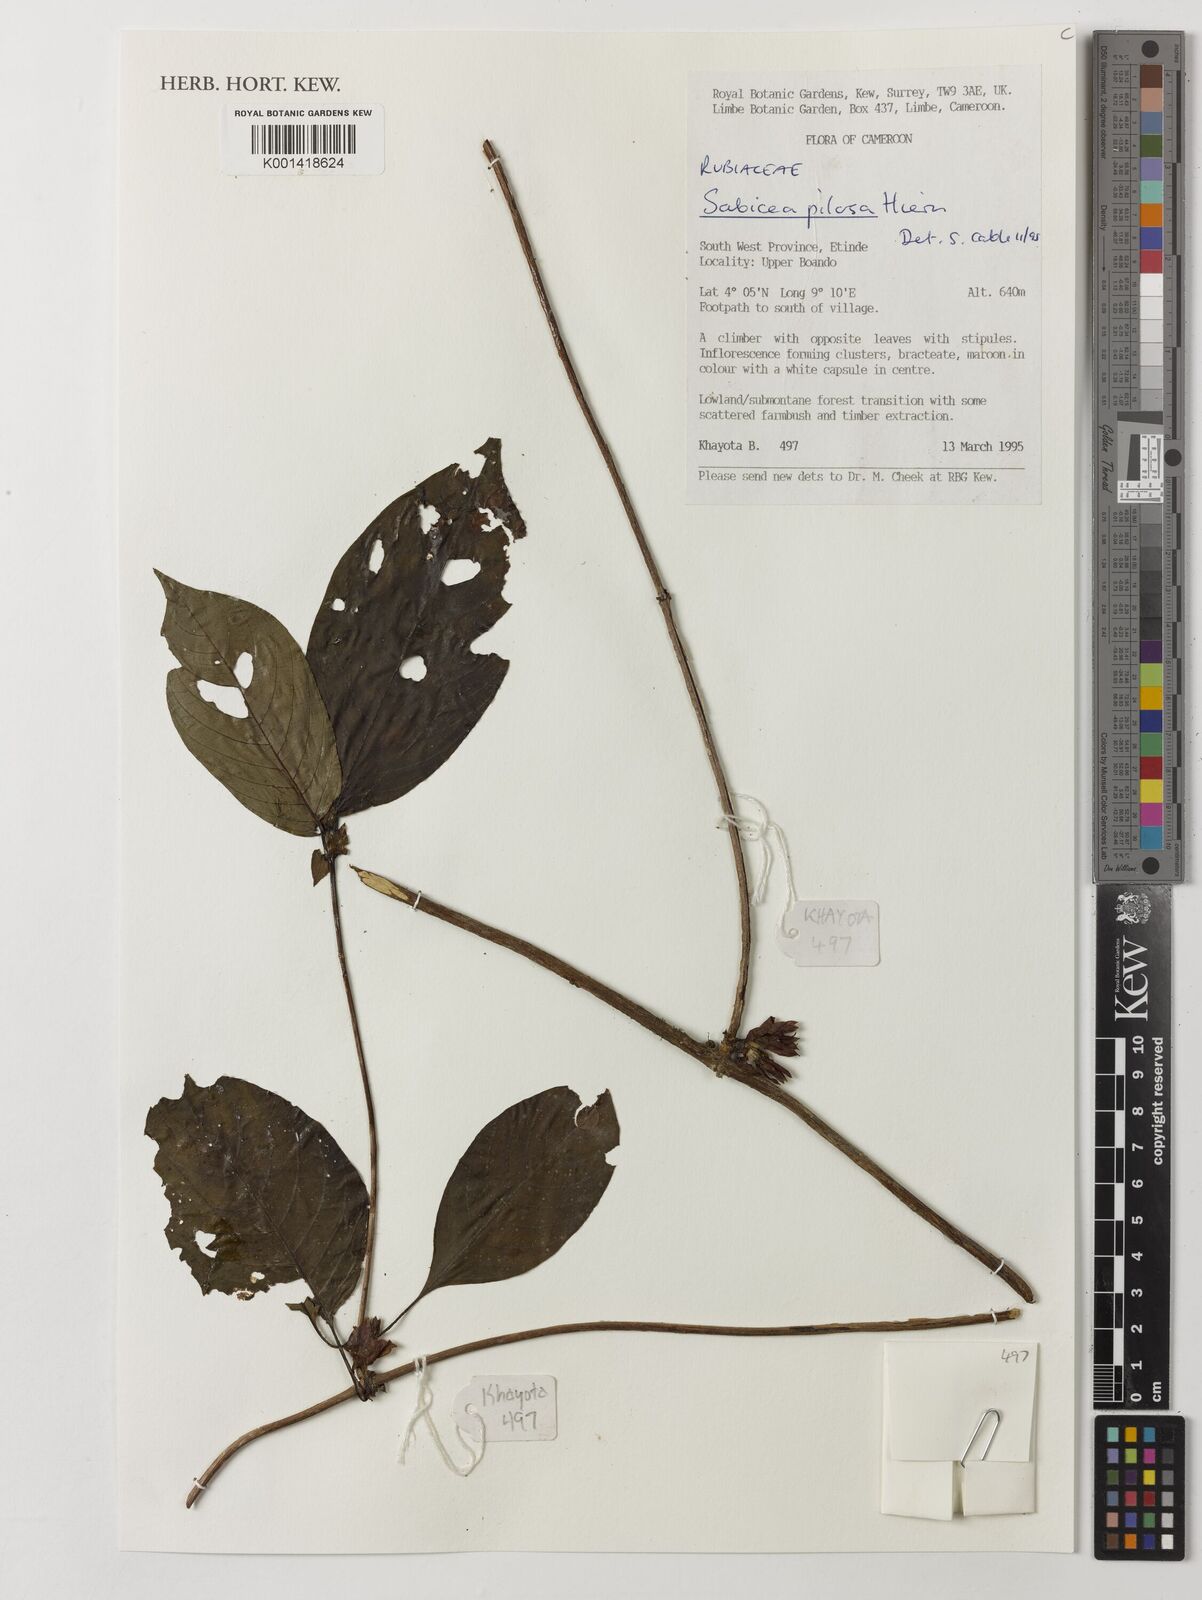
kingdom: Plantae
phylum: Tracheophyta
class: Magnoliopsida
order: Gentianales
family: Rubiaceae
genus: Sabicea
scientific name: Sabicea pilosa
